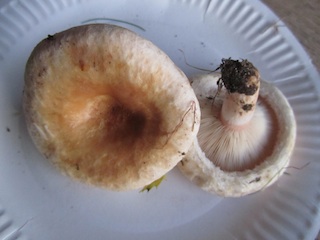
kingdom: Fungi
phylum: Basidiomycota
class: Agaricomycetes
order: Russulales
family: Russulaceae
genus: Lactarius
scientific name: Lactarius torminosus
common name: skægget mælkehat
